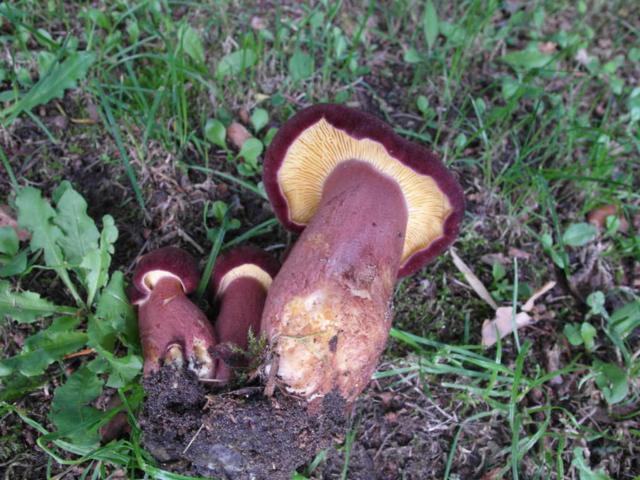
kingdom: Fungi
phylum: Basidiomycota
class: Agaricomycetes
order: Agaricales
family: Tricholomataceae
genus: Tricholomopsis
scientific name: Tricholomopsis rutilans
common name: purpur-væbnerhat
